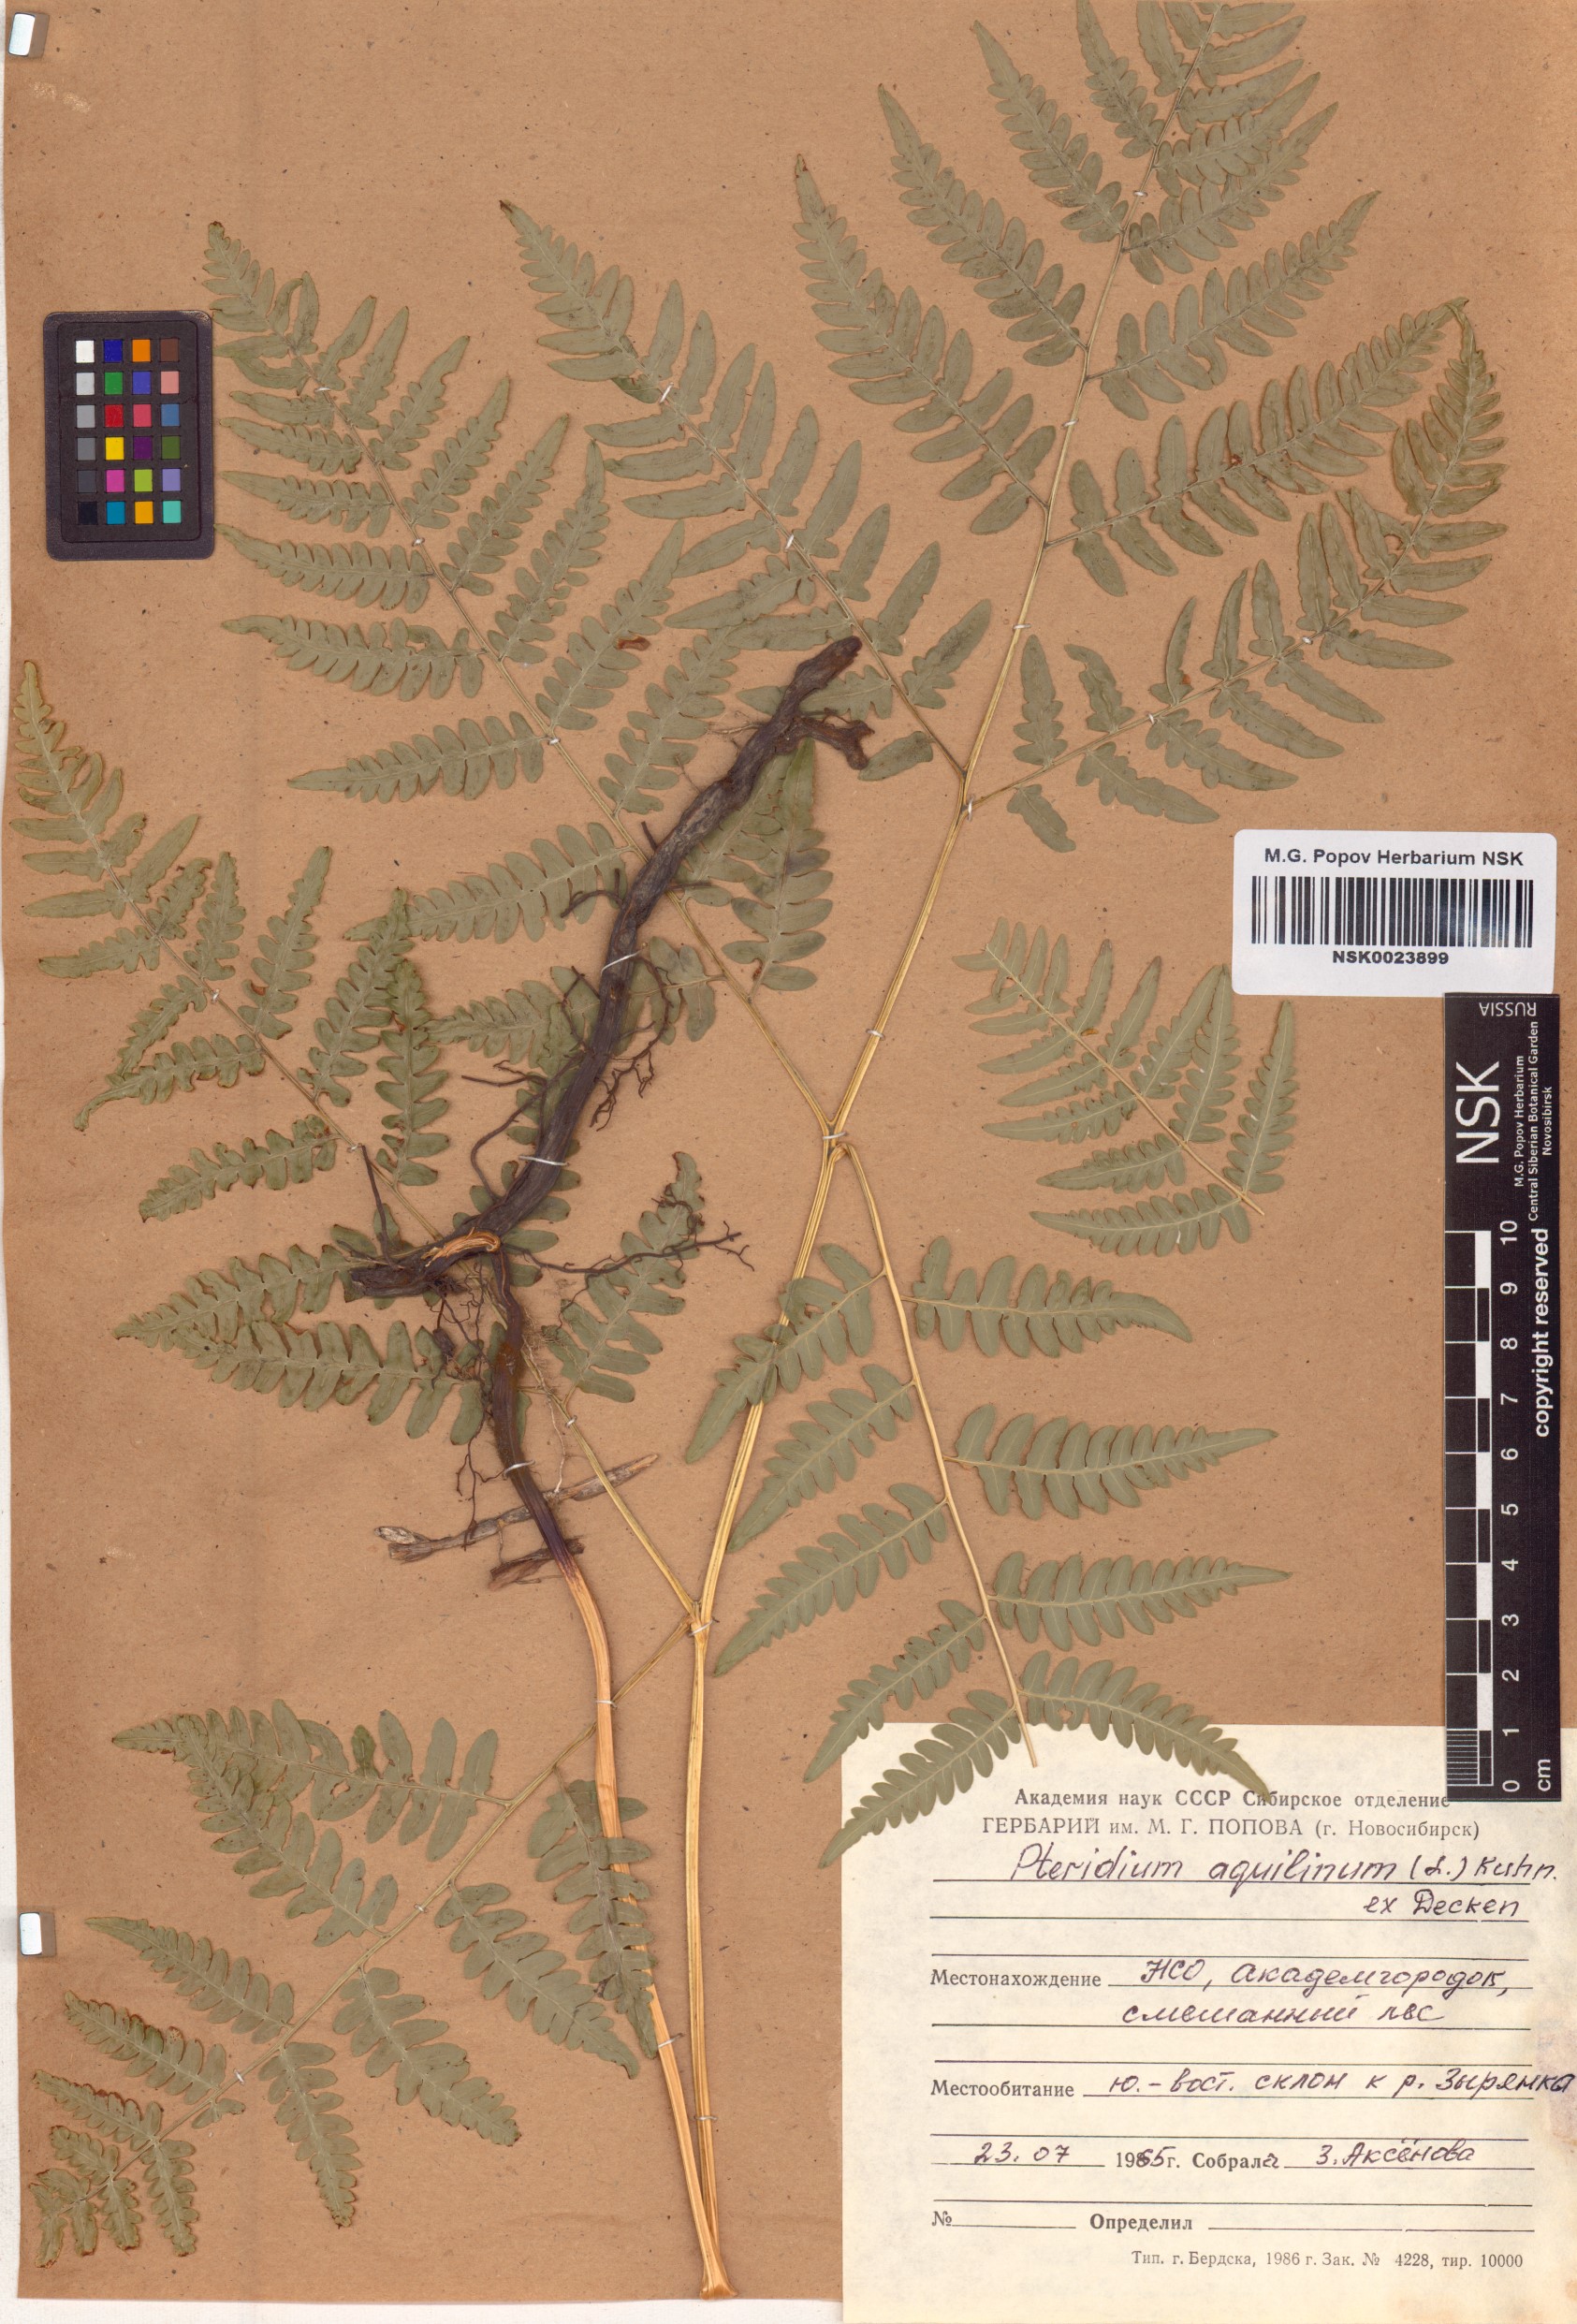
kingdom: Plantae
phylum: Tracheophyta
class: Polypodiopsida
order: Polypodiales
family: Dennstaedtiaceae
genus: Pteridium
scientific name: Pteridium aquilinum
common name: Bracken
